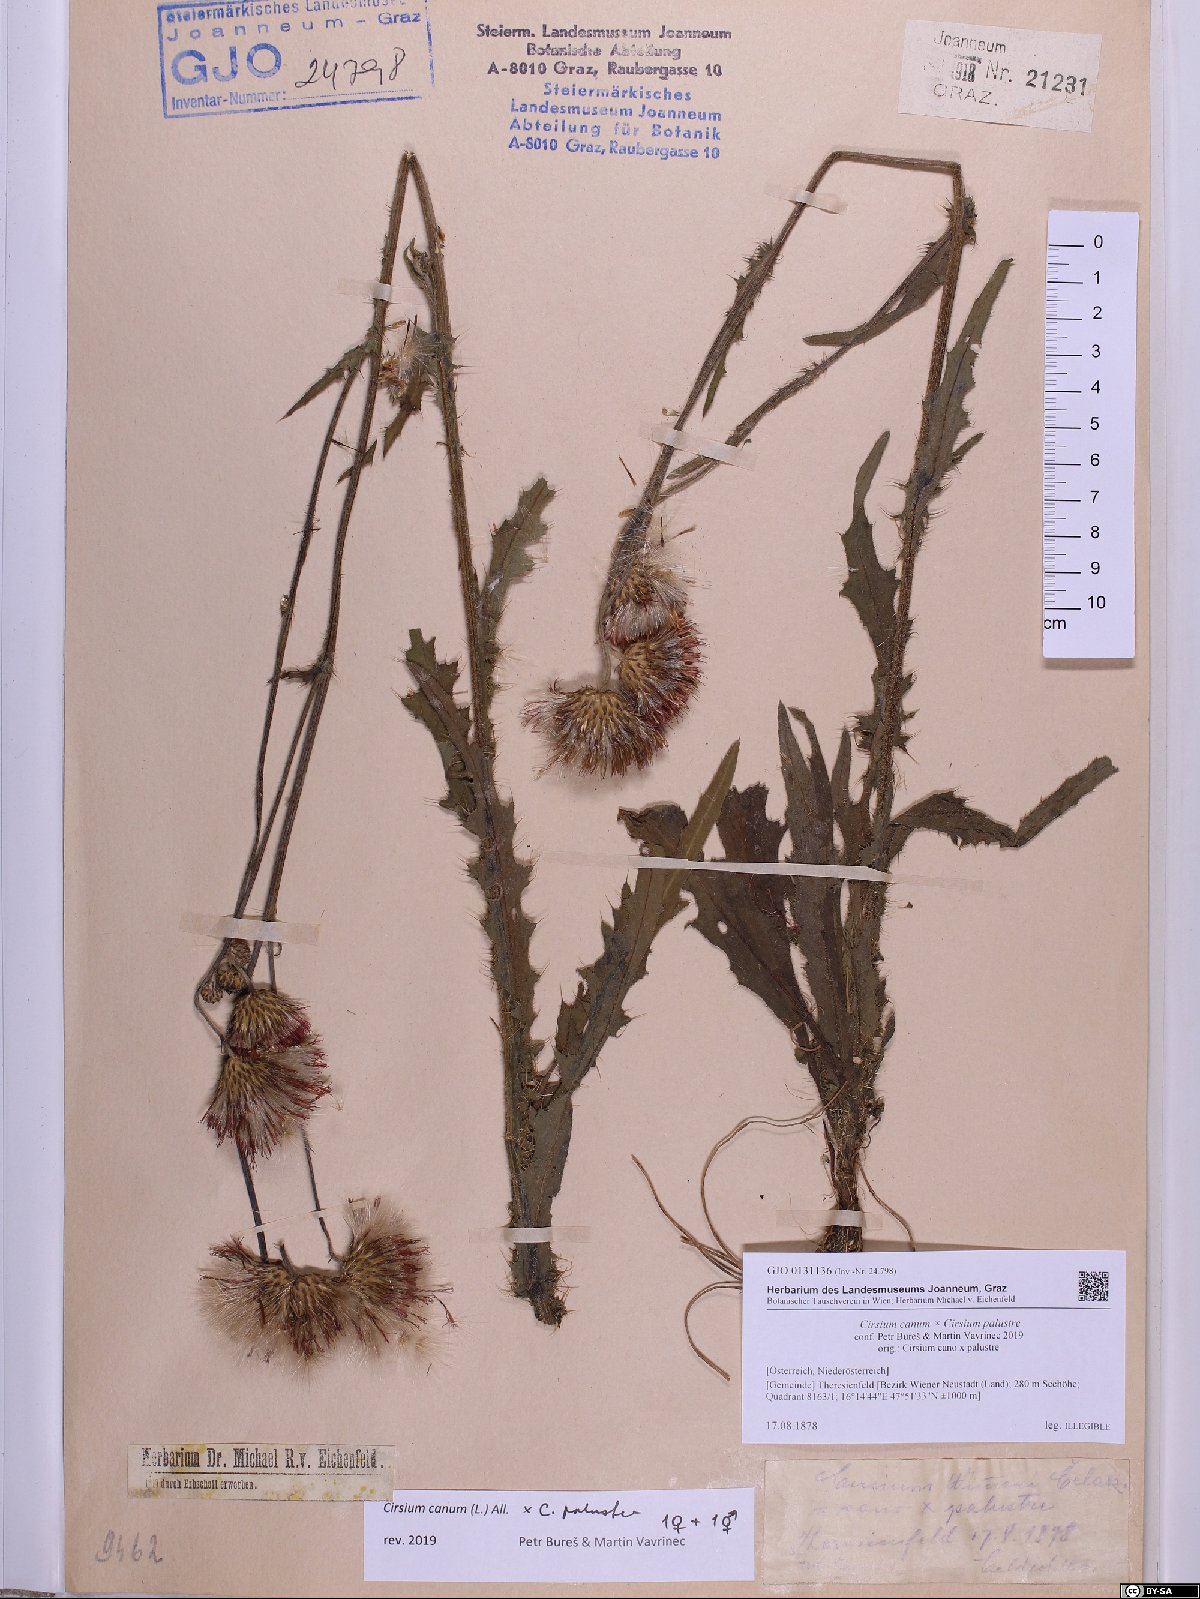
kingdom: Plantae
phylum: Tracheophyta
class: Magnoliopsida
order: Asterales
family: Asteraceae
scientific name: Asteraceae
